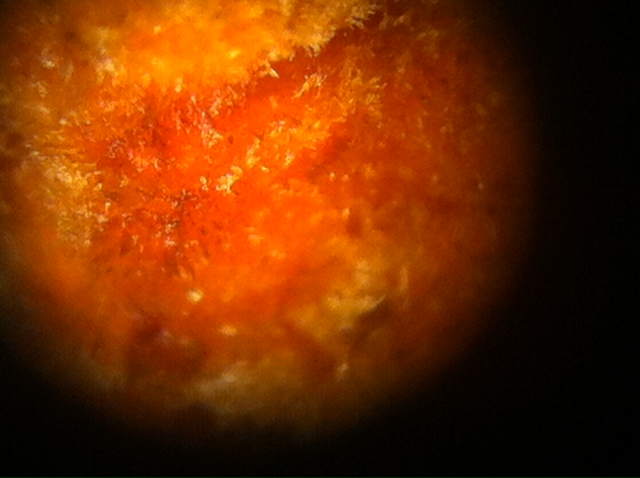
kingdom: Fungi
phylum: Basidiomycota
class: Agaricomycetes
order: Russulales
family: Stereaceae
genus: Stereum
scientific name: Stereum hirsutum
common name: håret lædersvamp
